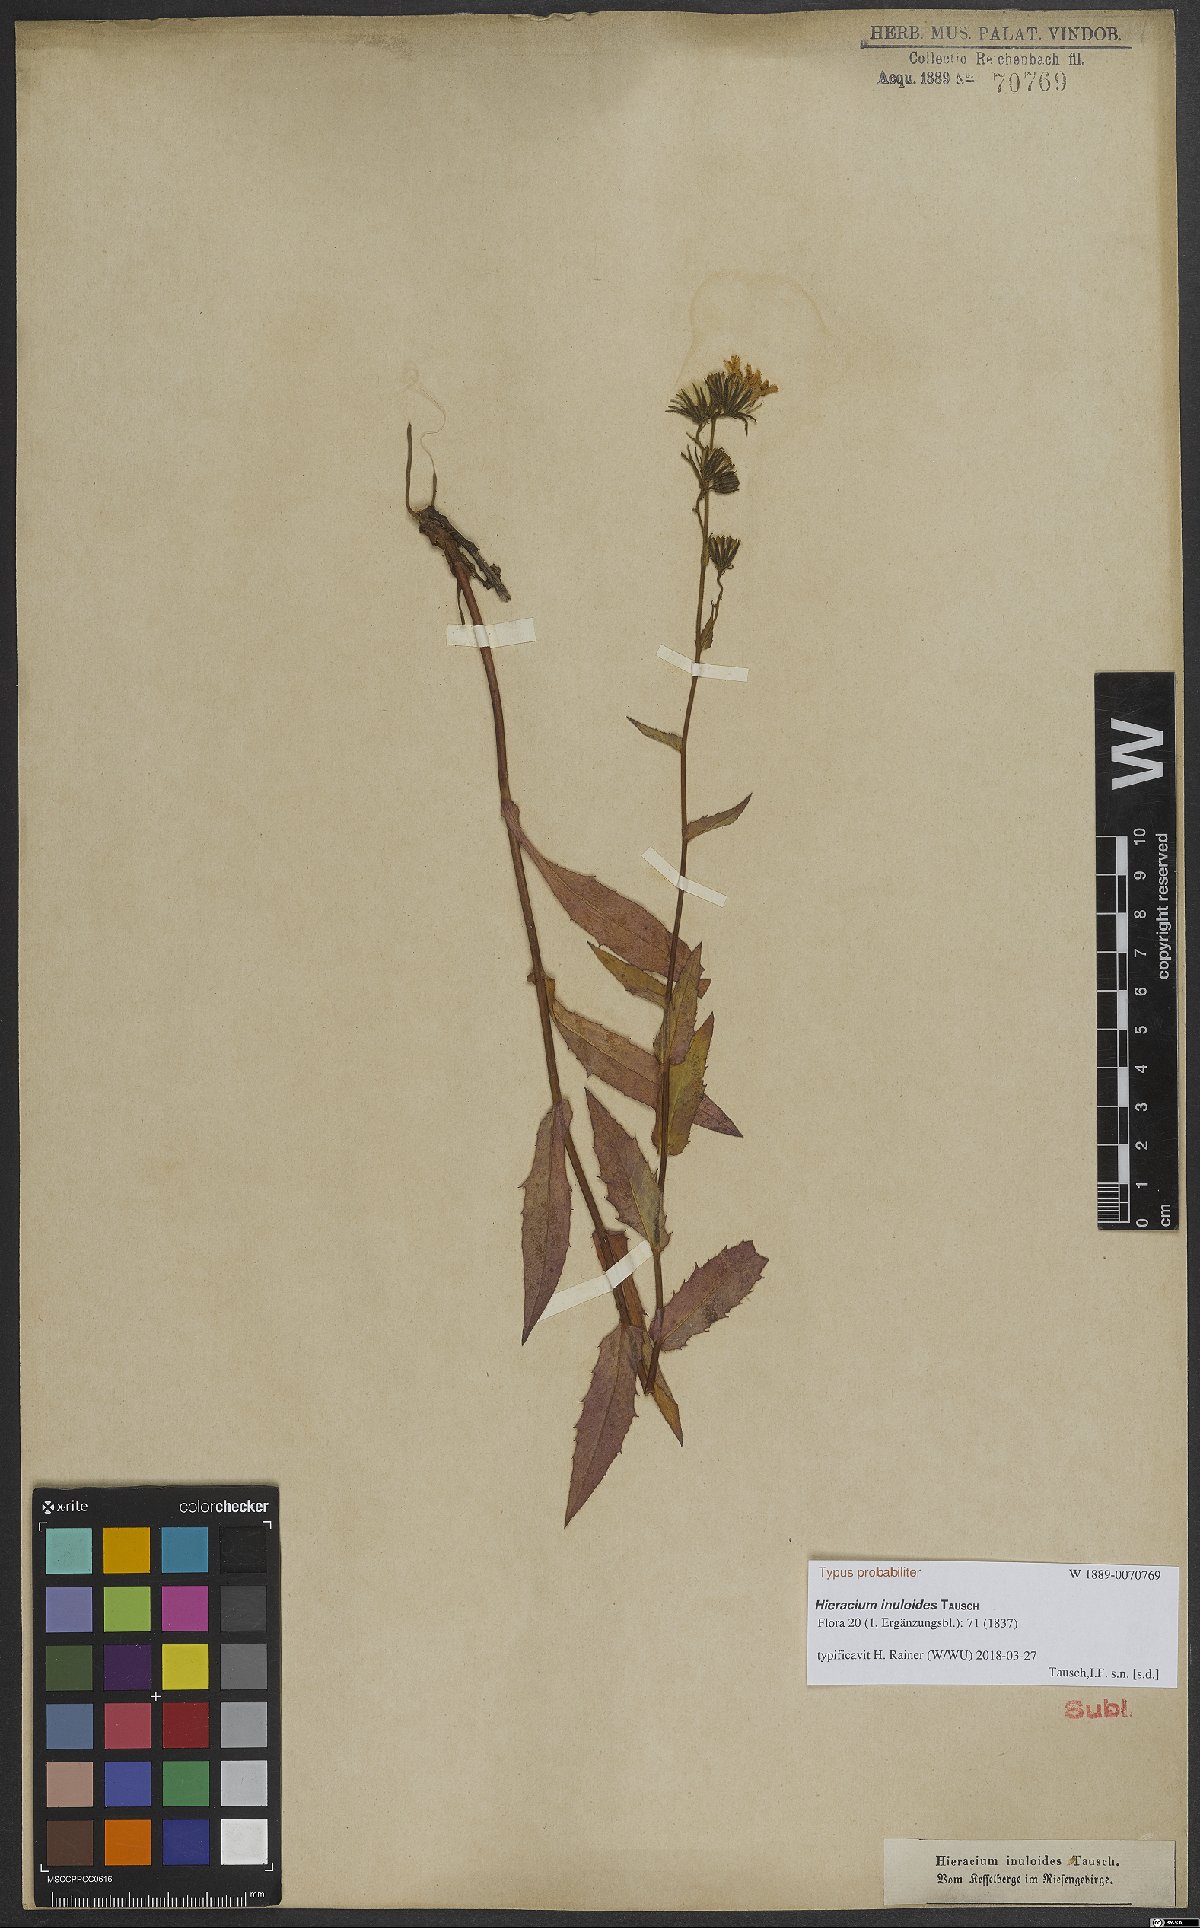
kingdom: Plantae
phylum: Tracheophyta
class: Magnoliopsida
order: Asterales
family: Asteraceae
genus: Hieracium
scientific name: Hieracium inuloides
